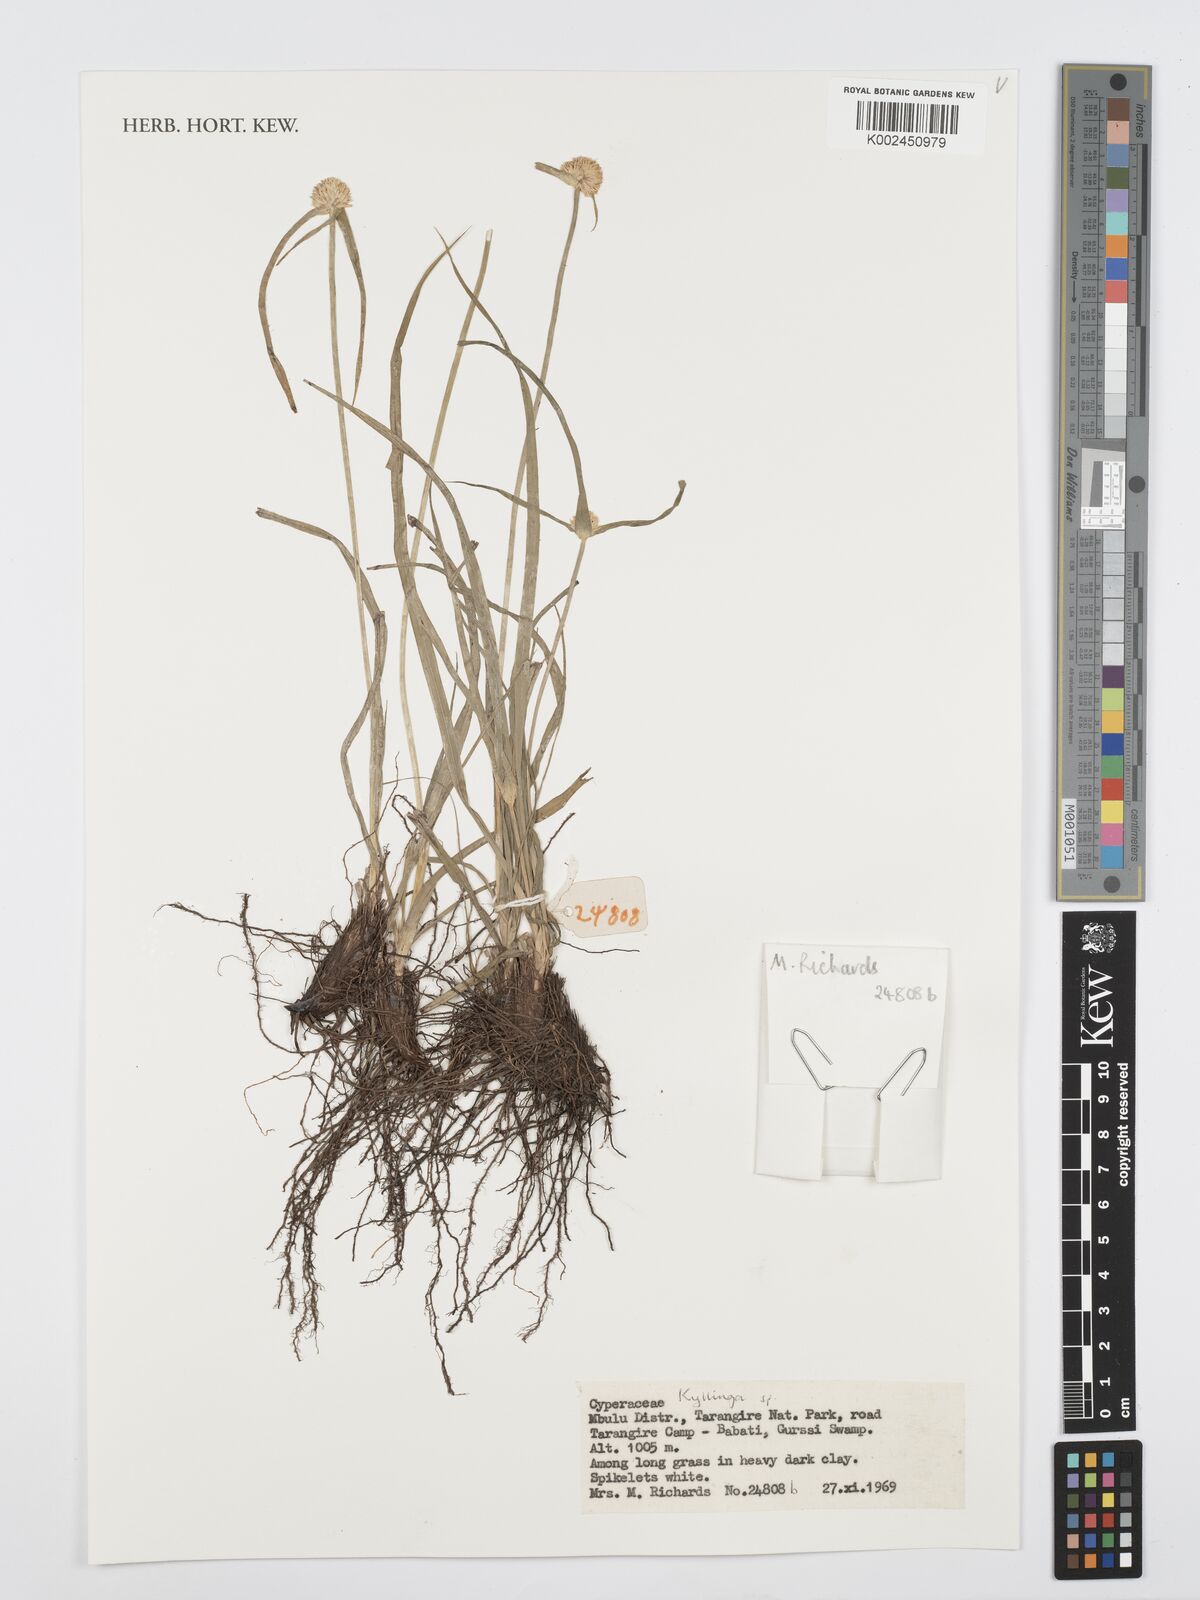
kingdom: Plantae
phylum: Tracheophyta
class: Liliopsida
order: Poales
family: Cyperaceae
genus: Cyperus
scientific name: Cyperus
